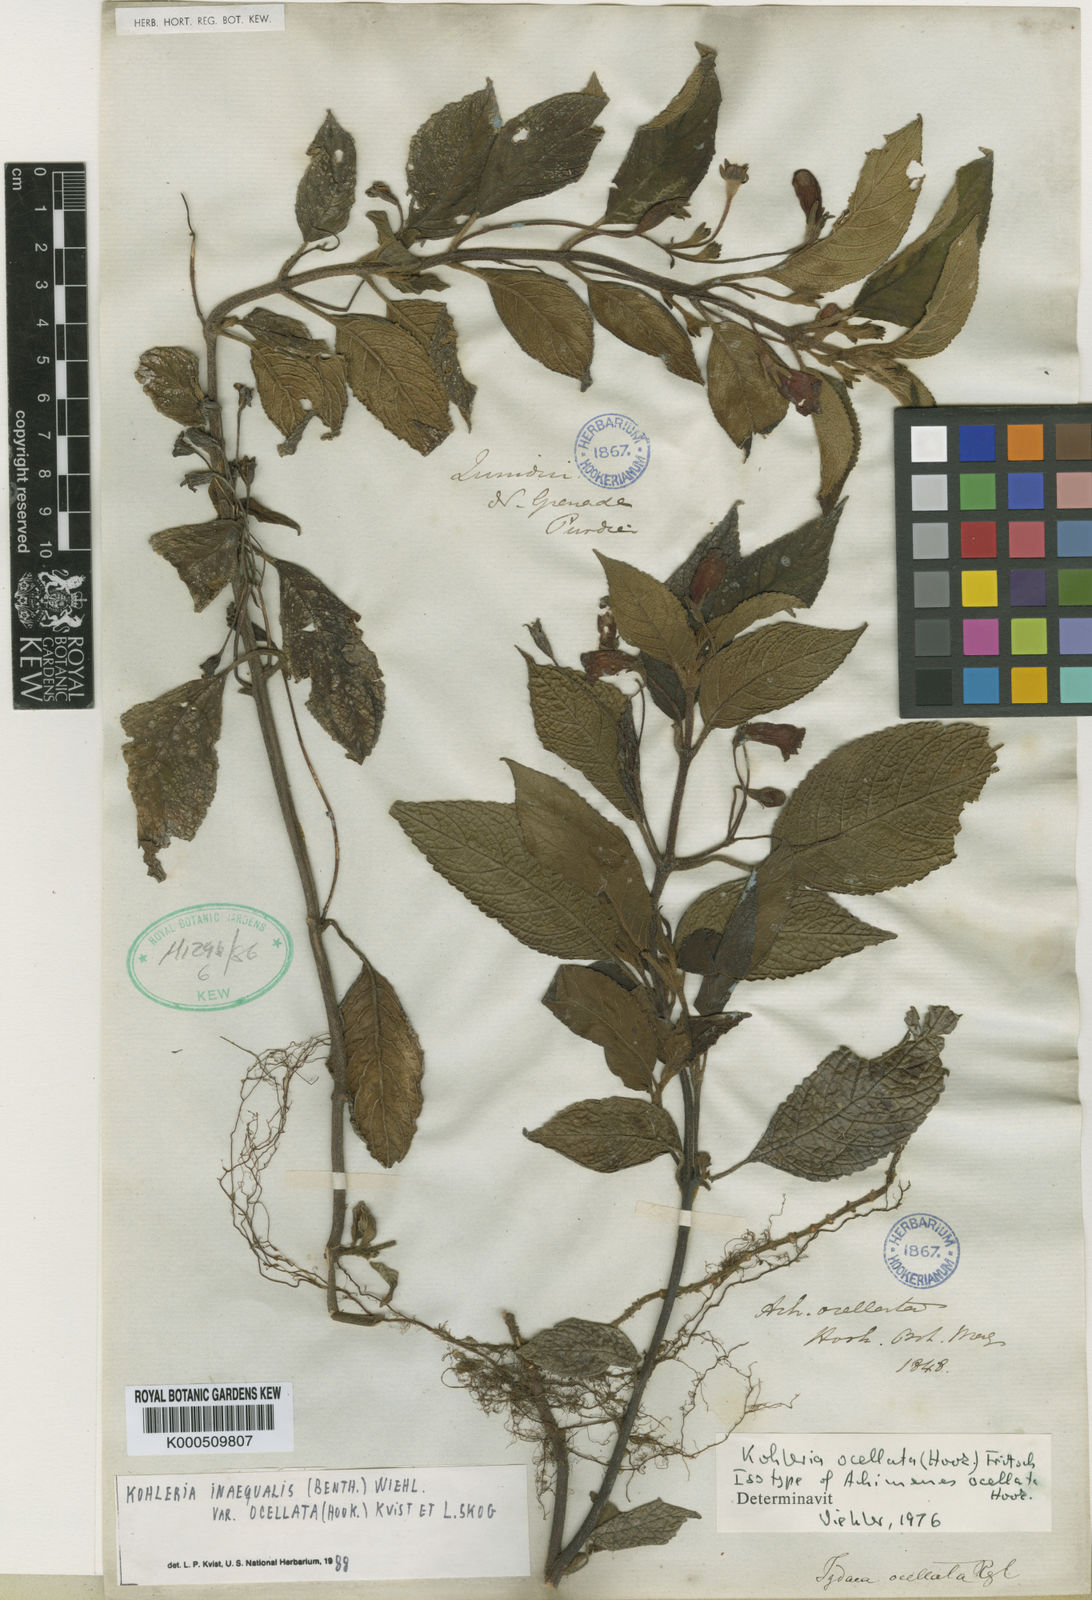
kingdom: Plantae
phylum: Tracheophyta
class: Magnoliopsida
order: Lamiales
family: Gesneriaceae
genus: Kohleria
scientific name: Kohleria inaequalis
